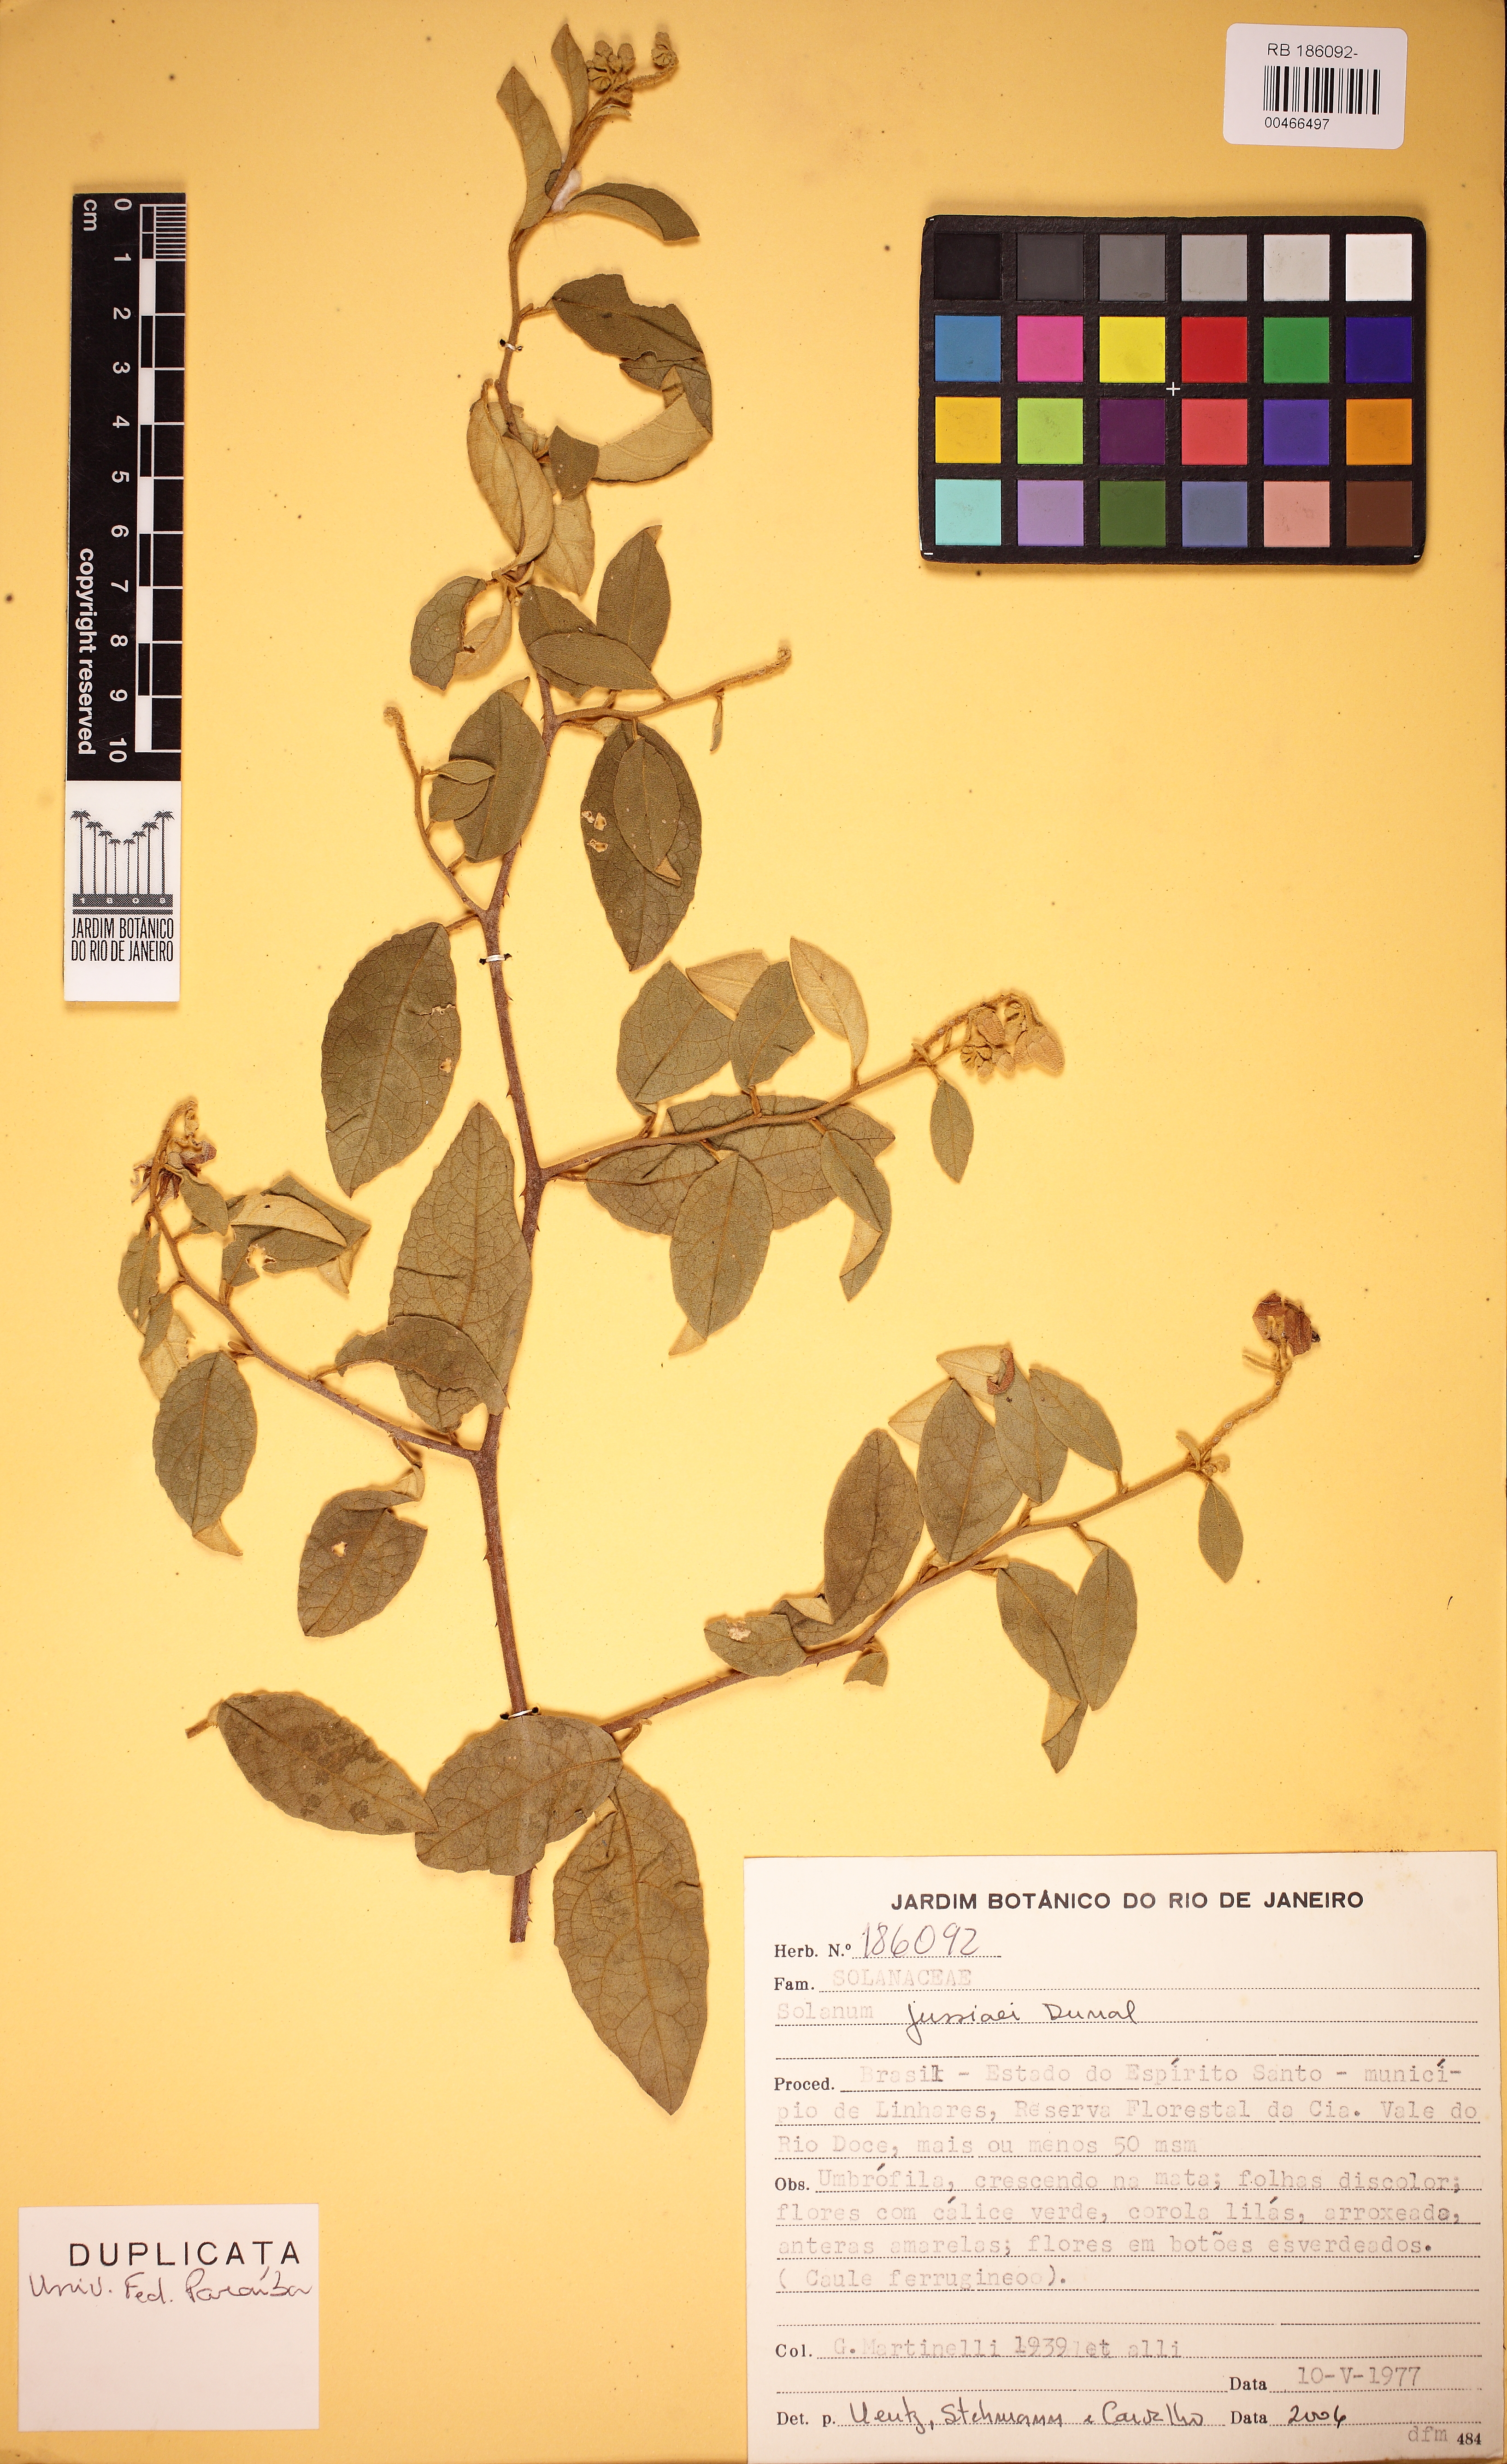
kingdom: Plantae
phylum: Tracheophyta
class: Magnoliopsida
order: Solanales
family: Solanaceae
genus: Solanum
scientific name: Solanum jussiaei
